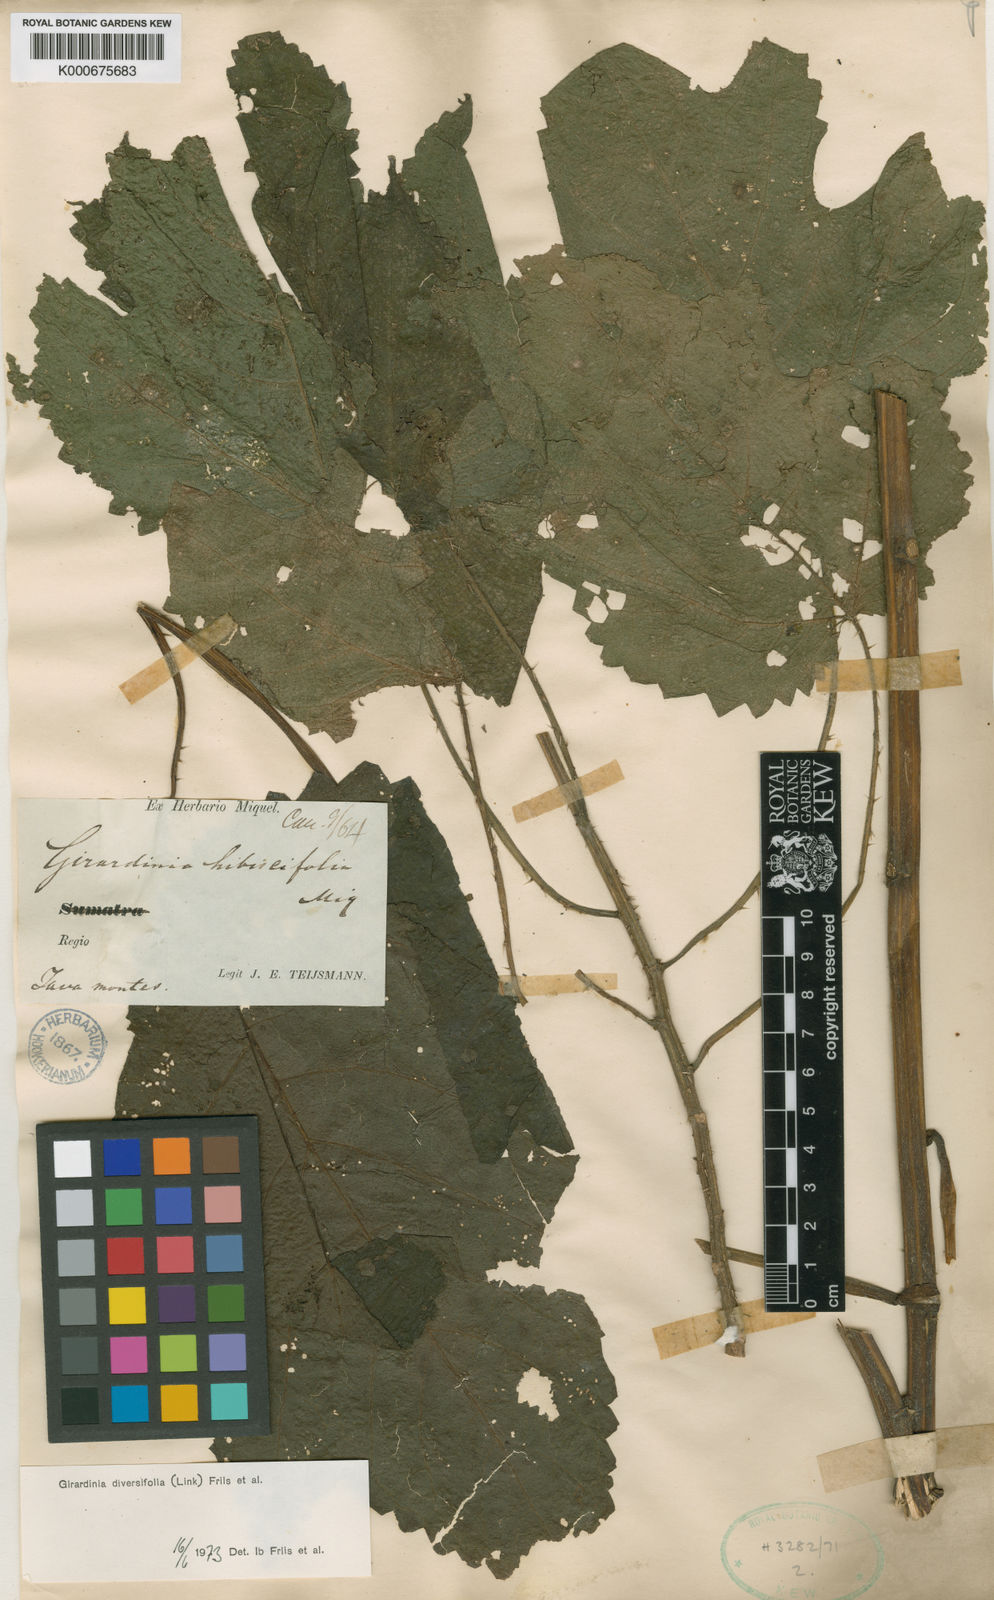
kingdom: Plantae
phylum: Tracheophyta
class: Magnoliopsida
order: Rosales
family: Urticaceae
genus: Girardinia
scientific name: Girardinia diversifolia
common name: Himalayan-nettle
